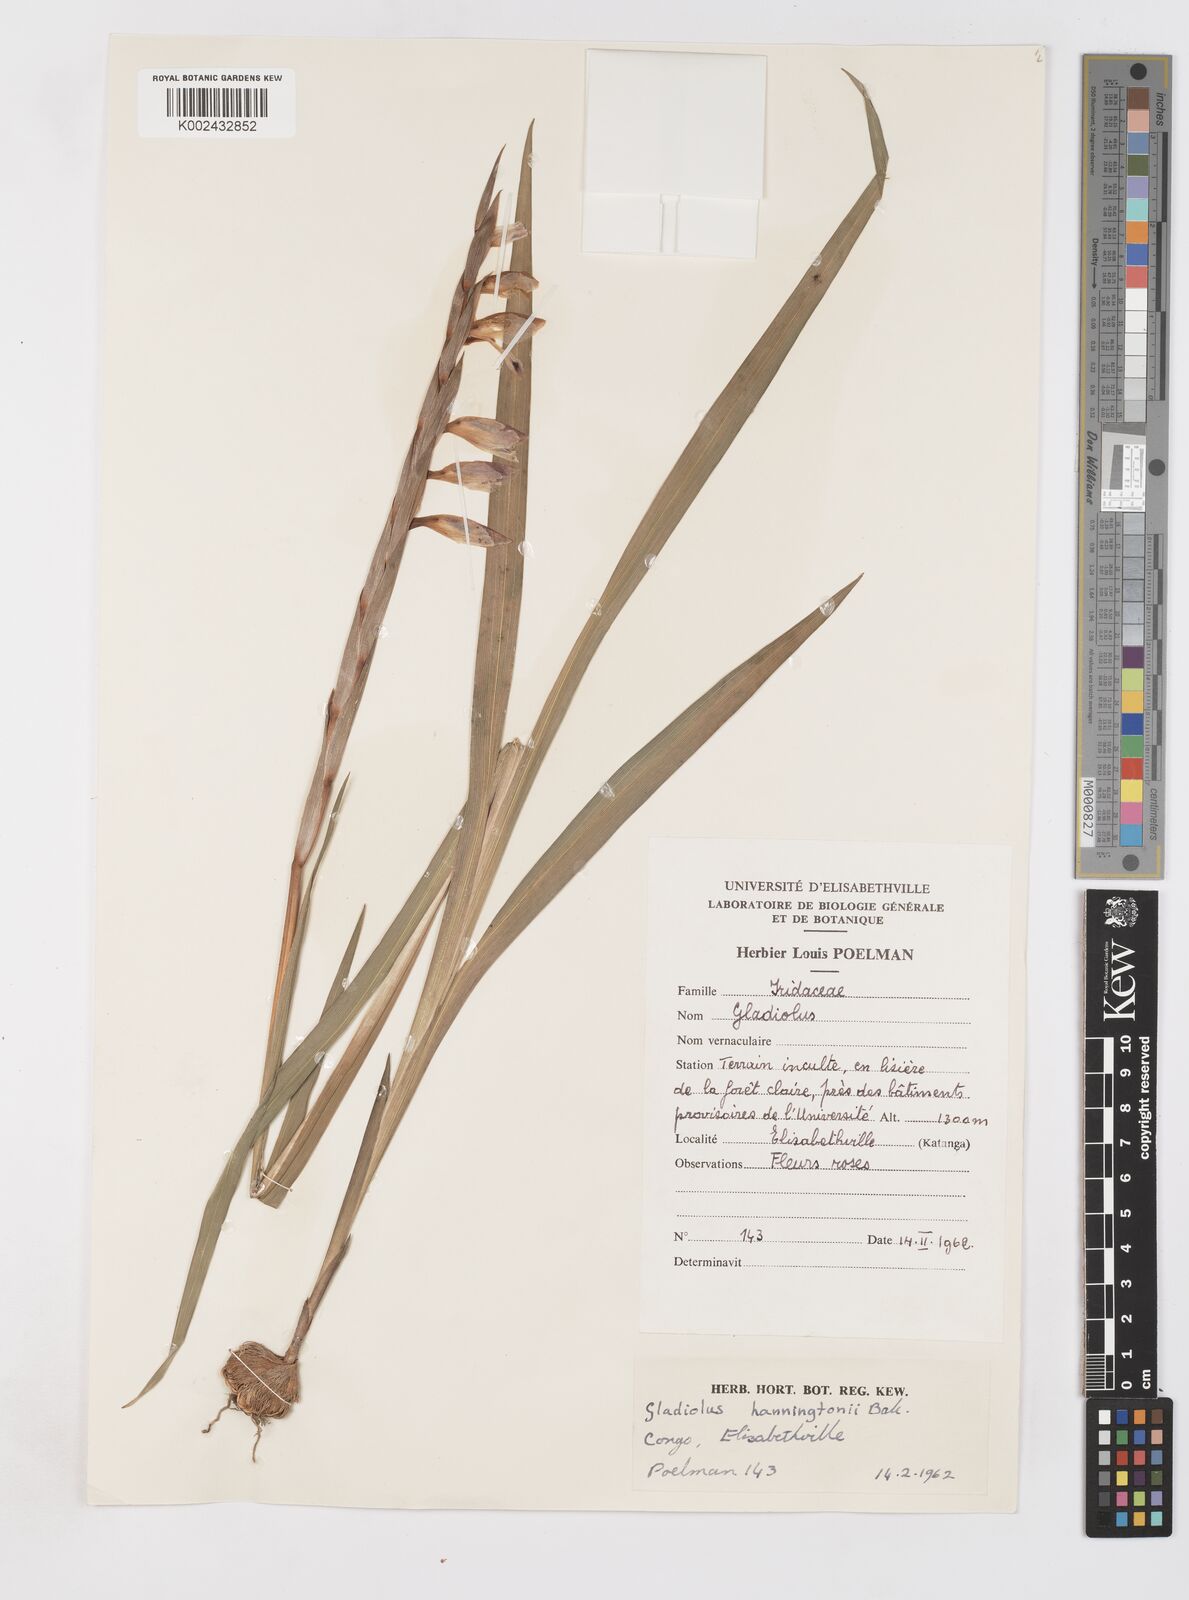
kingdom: Plantae
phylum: Tracheophyta
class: Liliopsida
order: Asparagales
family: Iridaceae
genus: Gladiolus
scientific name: Gladiolus gregarius
